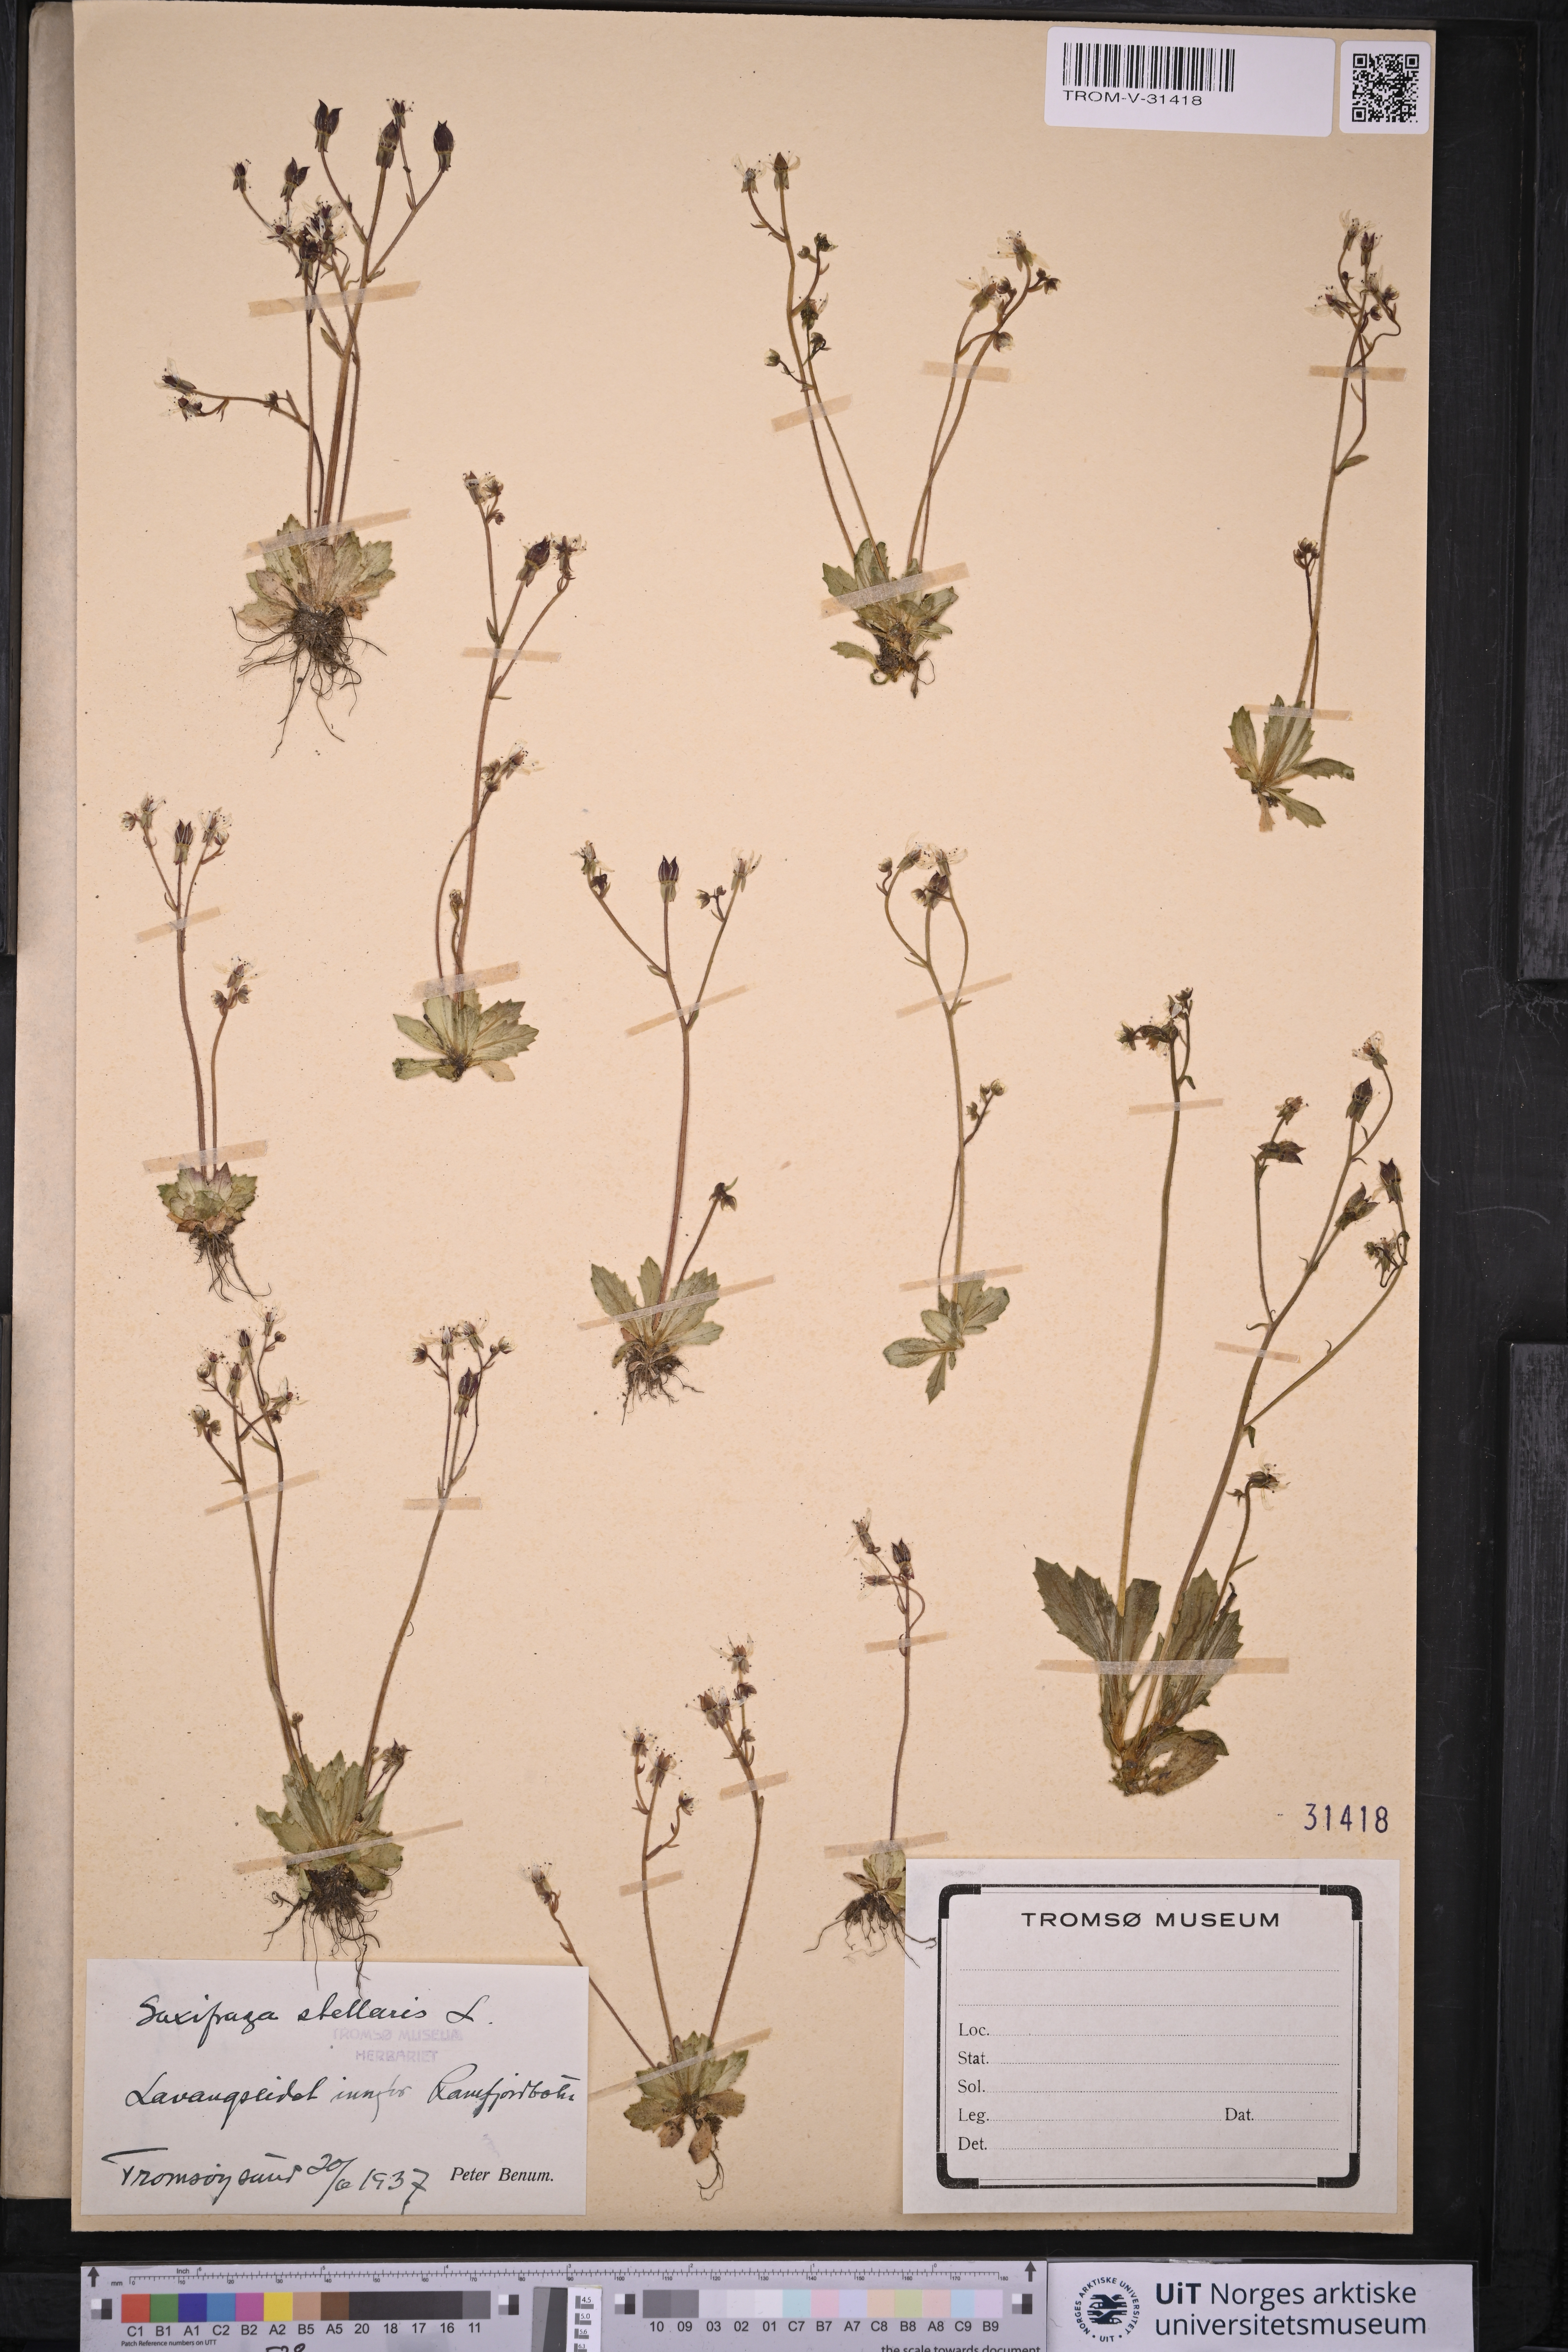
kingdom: Plantae
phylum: Tracheophyta
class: Magnoliopsida
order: Saxifragales
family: Saxifragaceae
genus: Micranthes
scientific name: Micranthes stellaris
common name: Starry saxifrage
